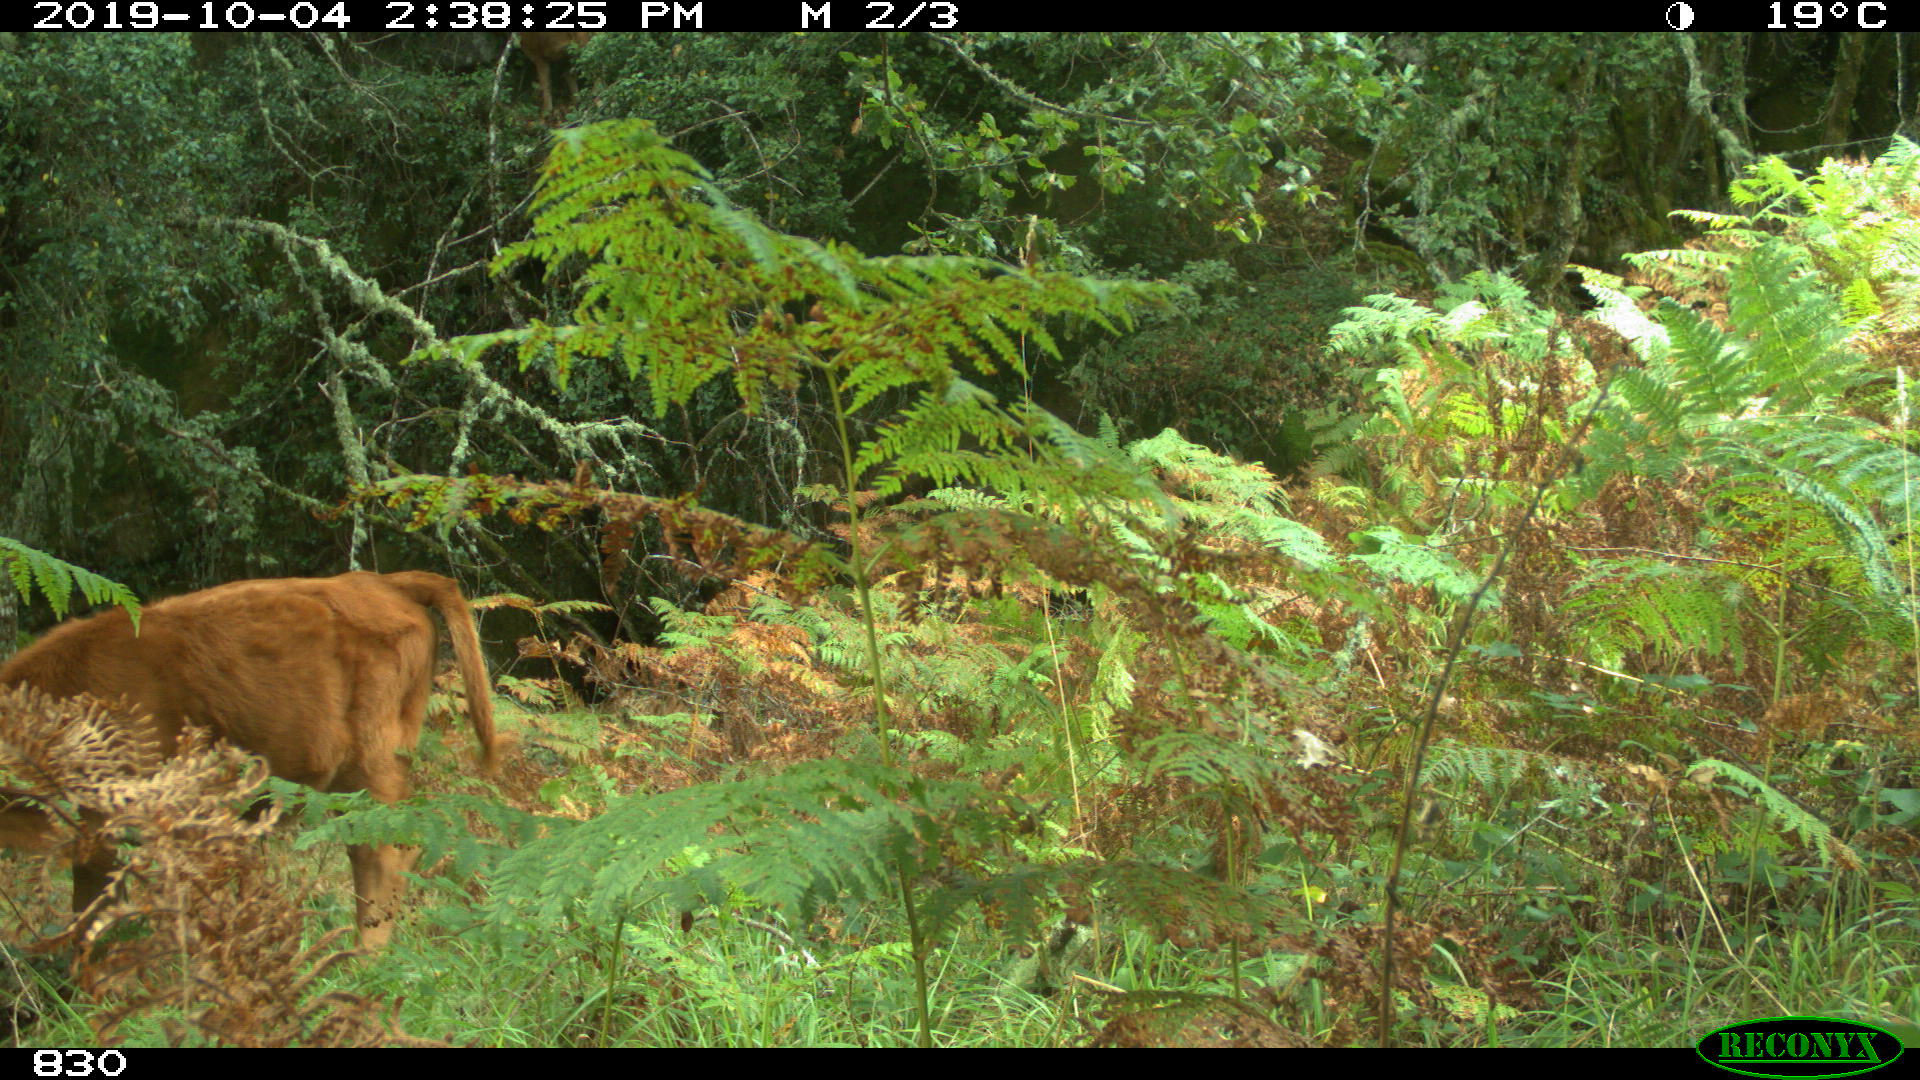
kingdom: Animalia
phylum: Chordata
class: Mammalia
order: Artiodactyla
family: Bovidae
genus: Bos
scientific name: Bos taurus
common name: Domesticated cattle
